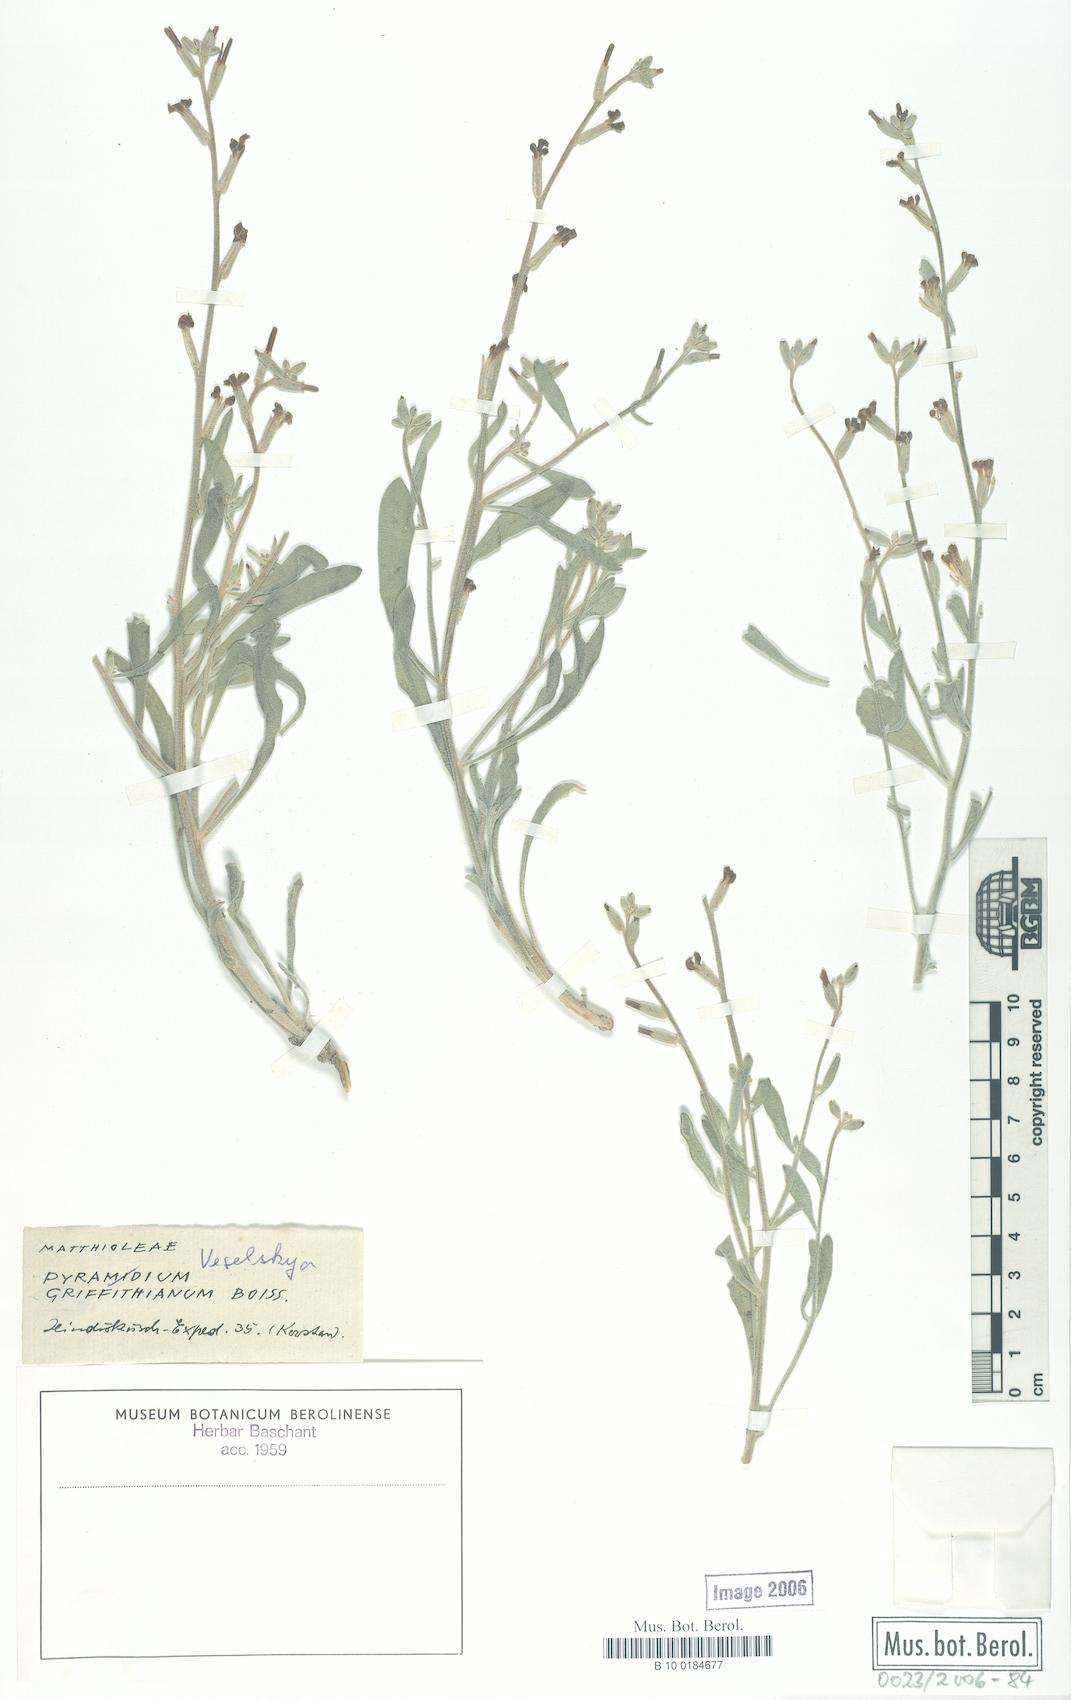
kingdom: Plantae
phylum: Tracheophyta
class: Magnoliopsida
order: Brassicales
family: Brassicaceae
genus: Veselskya
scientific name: Veselskya griffithiana
